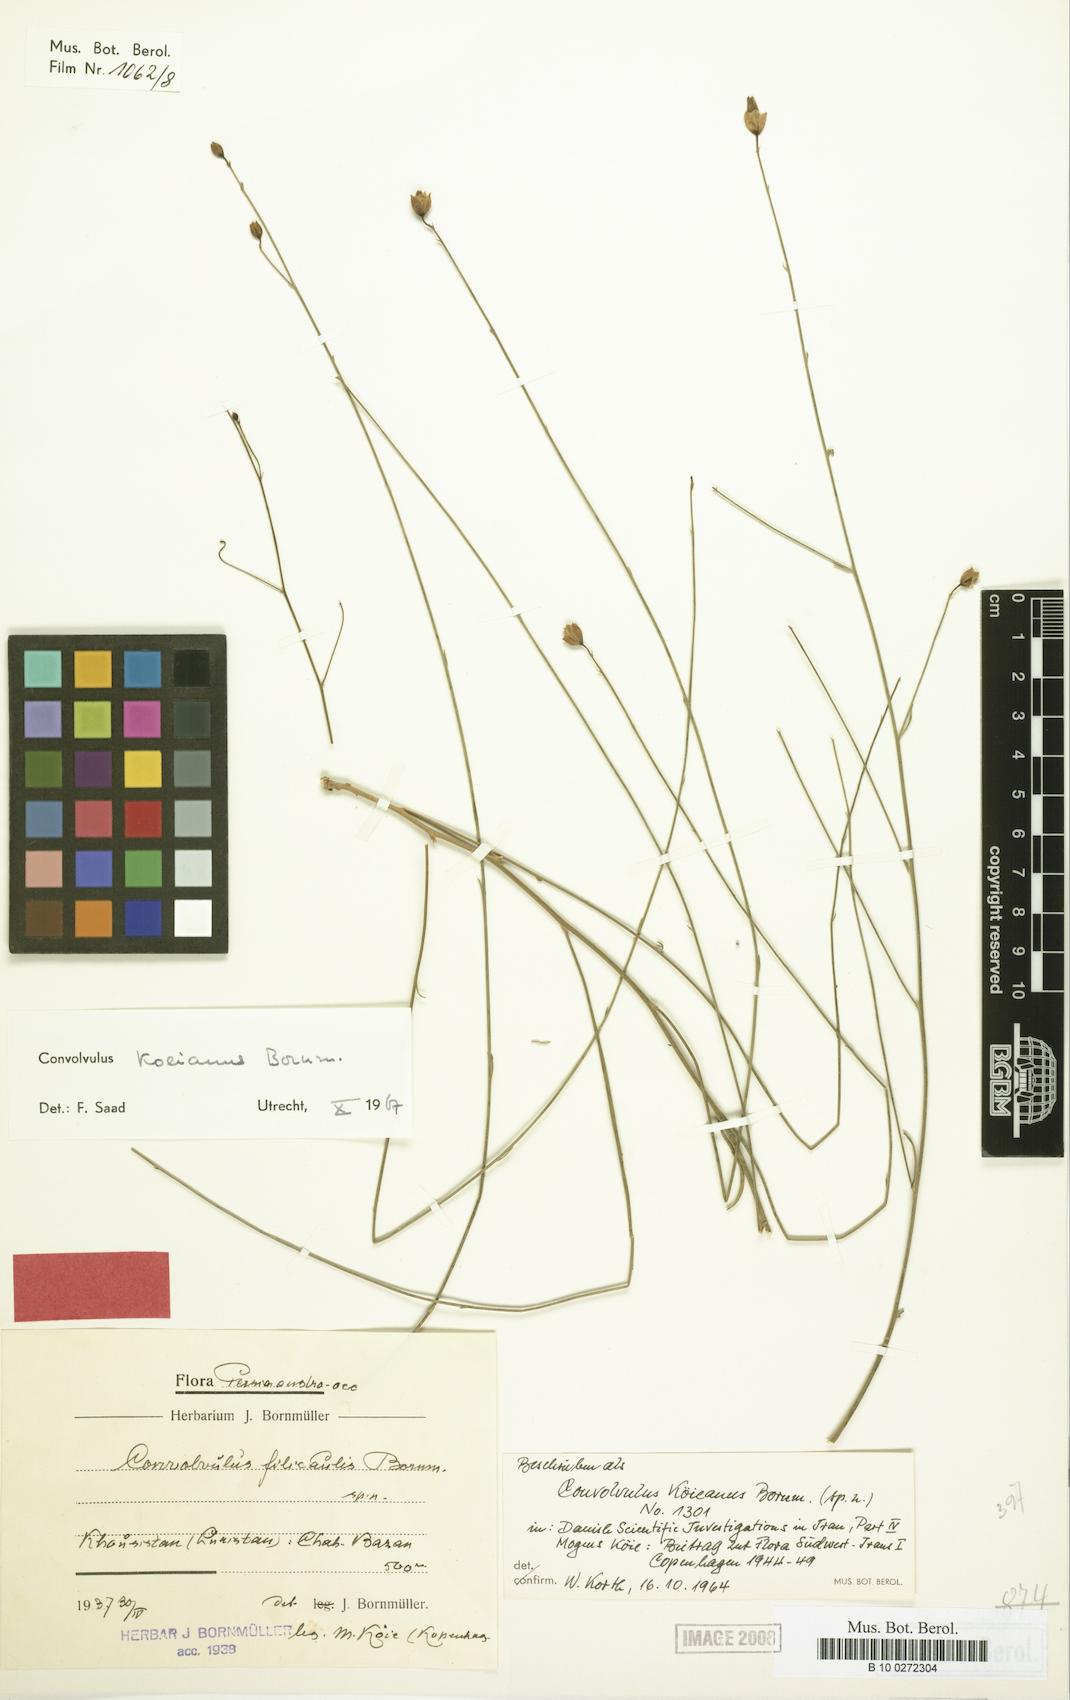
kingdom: Plantae
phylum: Tracheophyta
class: Magnoliopsida
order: Solanales
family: Convolvulaceae
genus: Convolvulus
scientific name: Convolvulus koieanus
